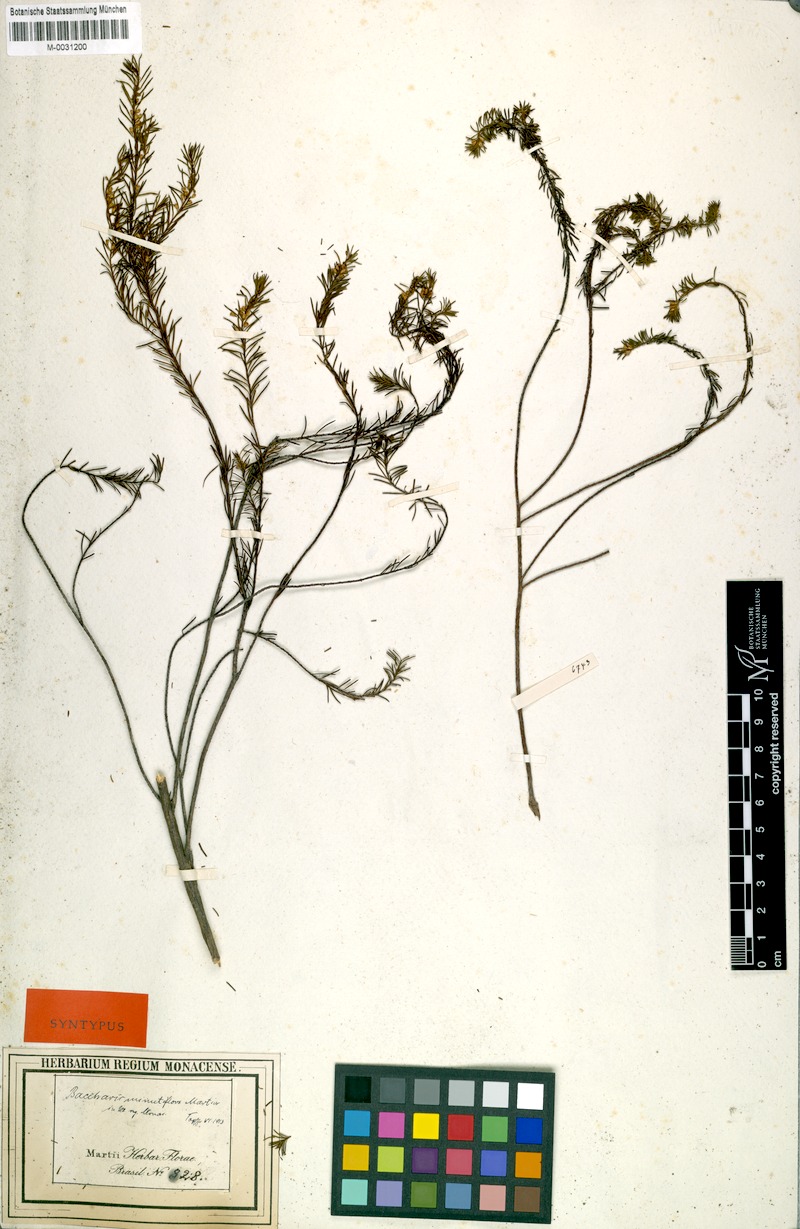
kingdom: Plantae
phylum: Tracheophyta
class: Magnoliopsida
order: Asterales
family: Asteraceae
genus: Baccharis
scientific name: Baccharis minutiflora
